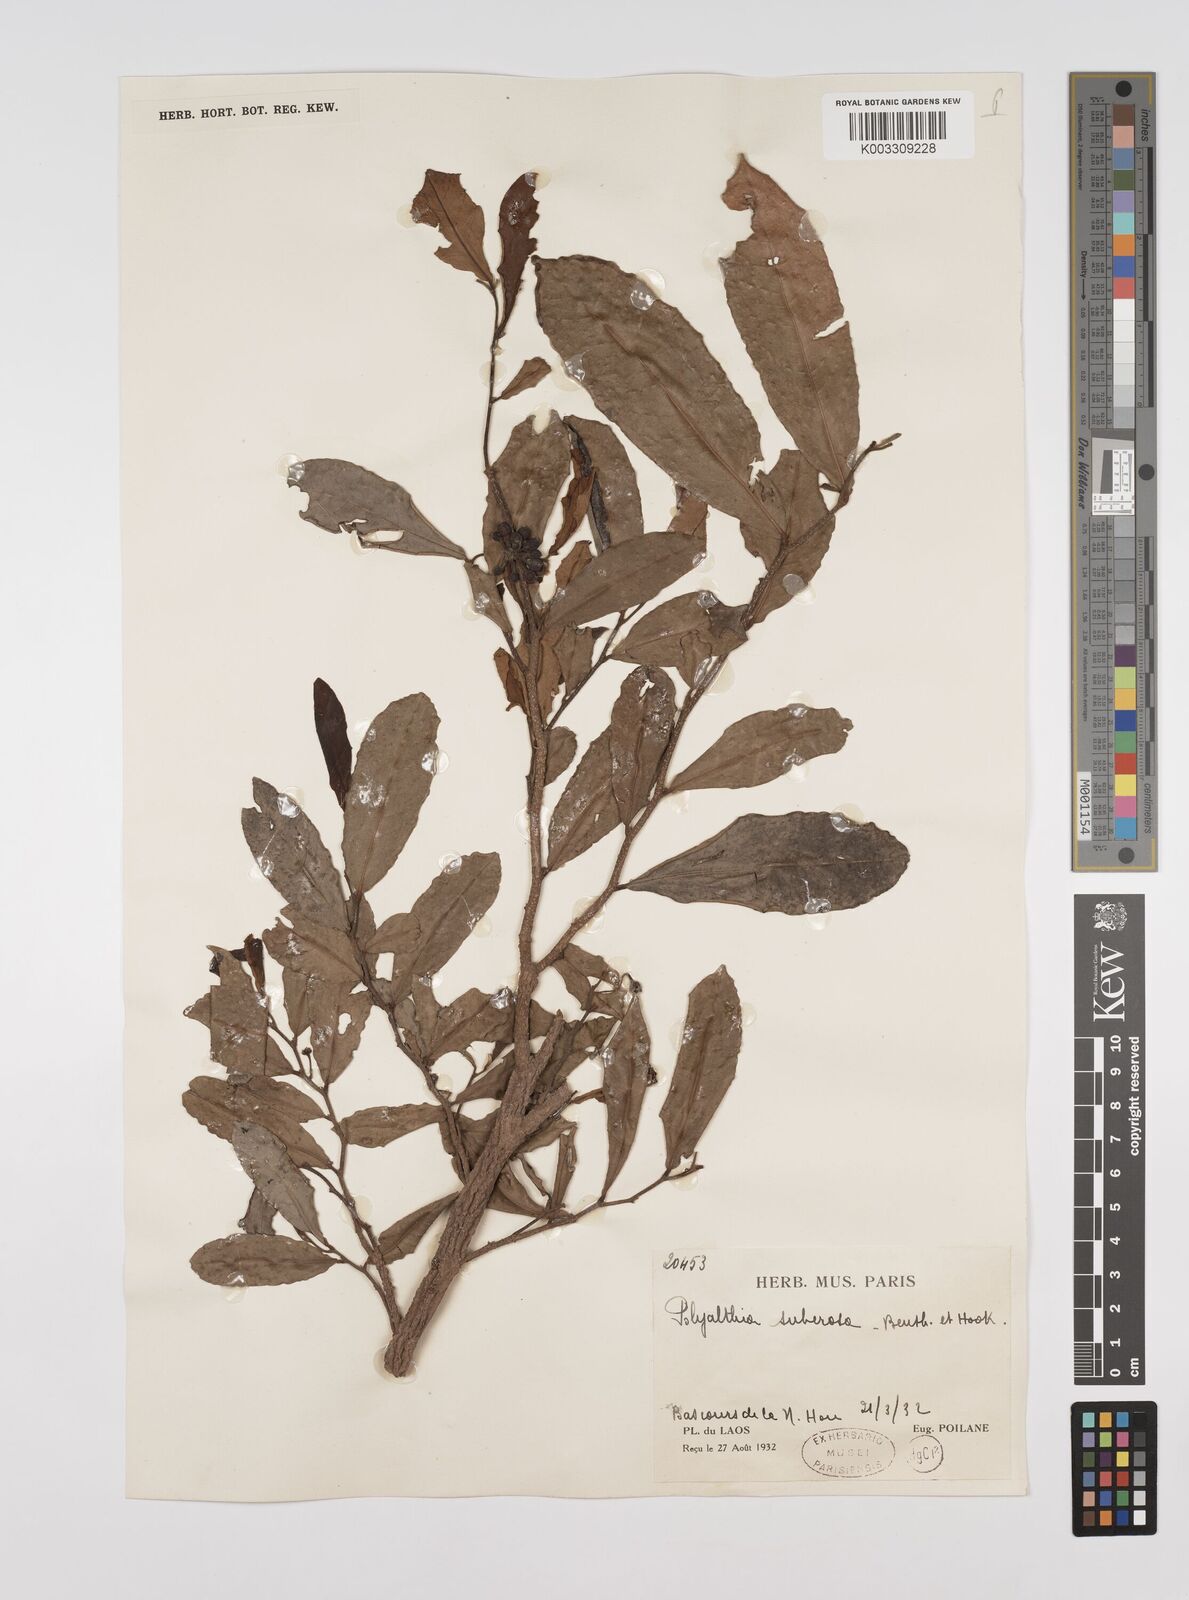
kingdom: Plantae
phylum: Tracheophyta
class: Magnoliopsida
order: Magnoliales
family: Annonaceae
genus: Polyalthia
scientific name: Polyalthia suberosa
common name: Polyalthia plant
